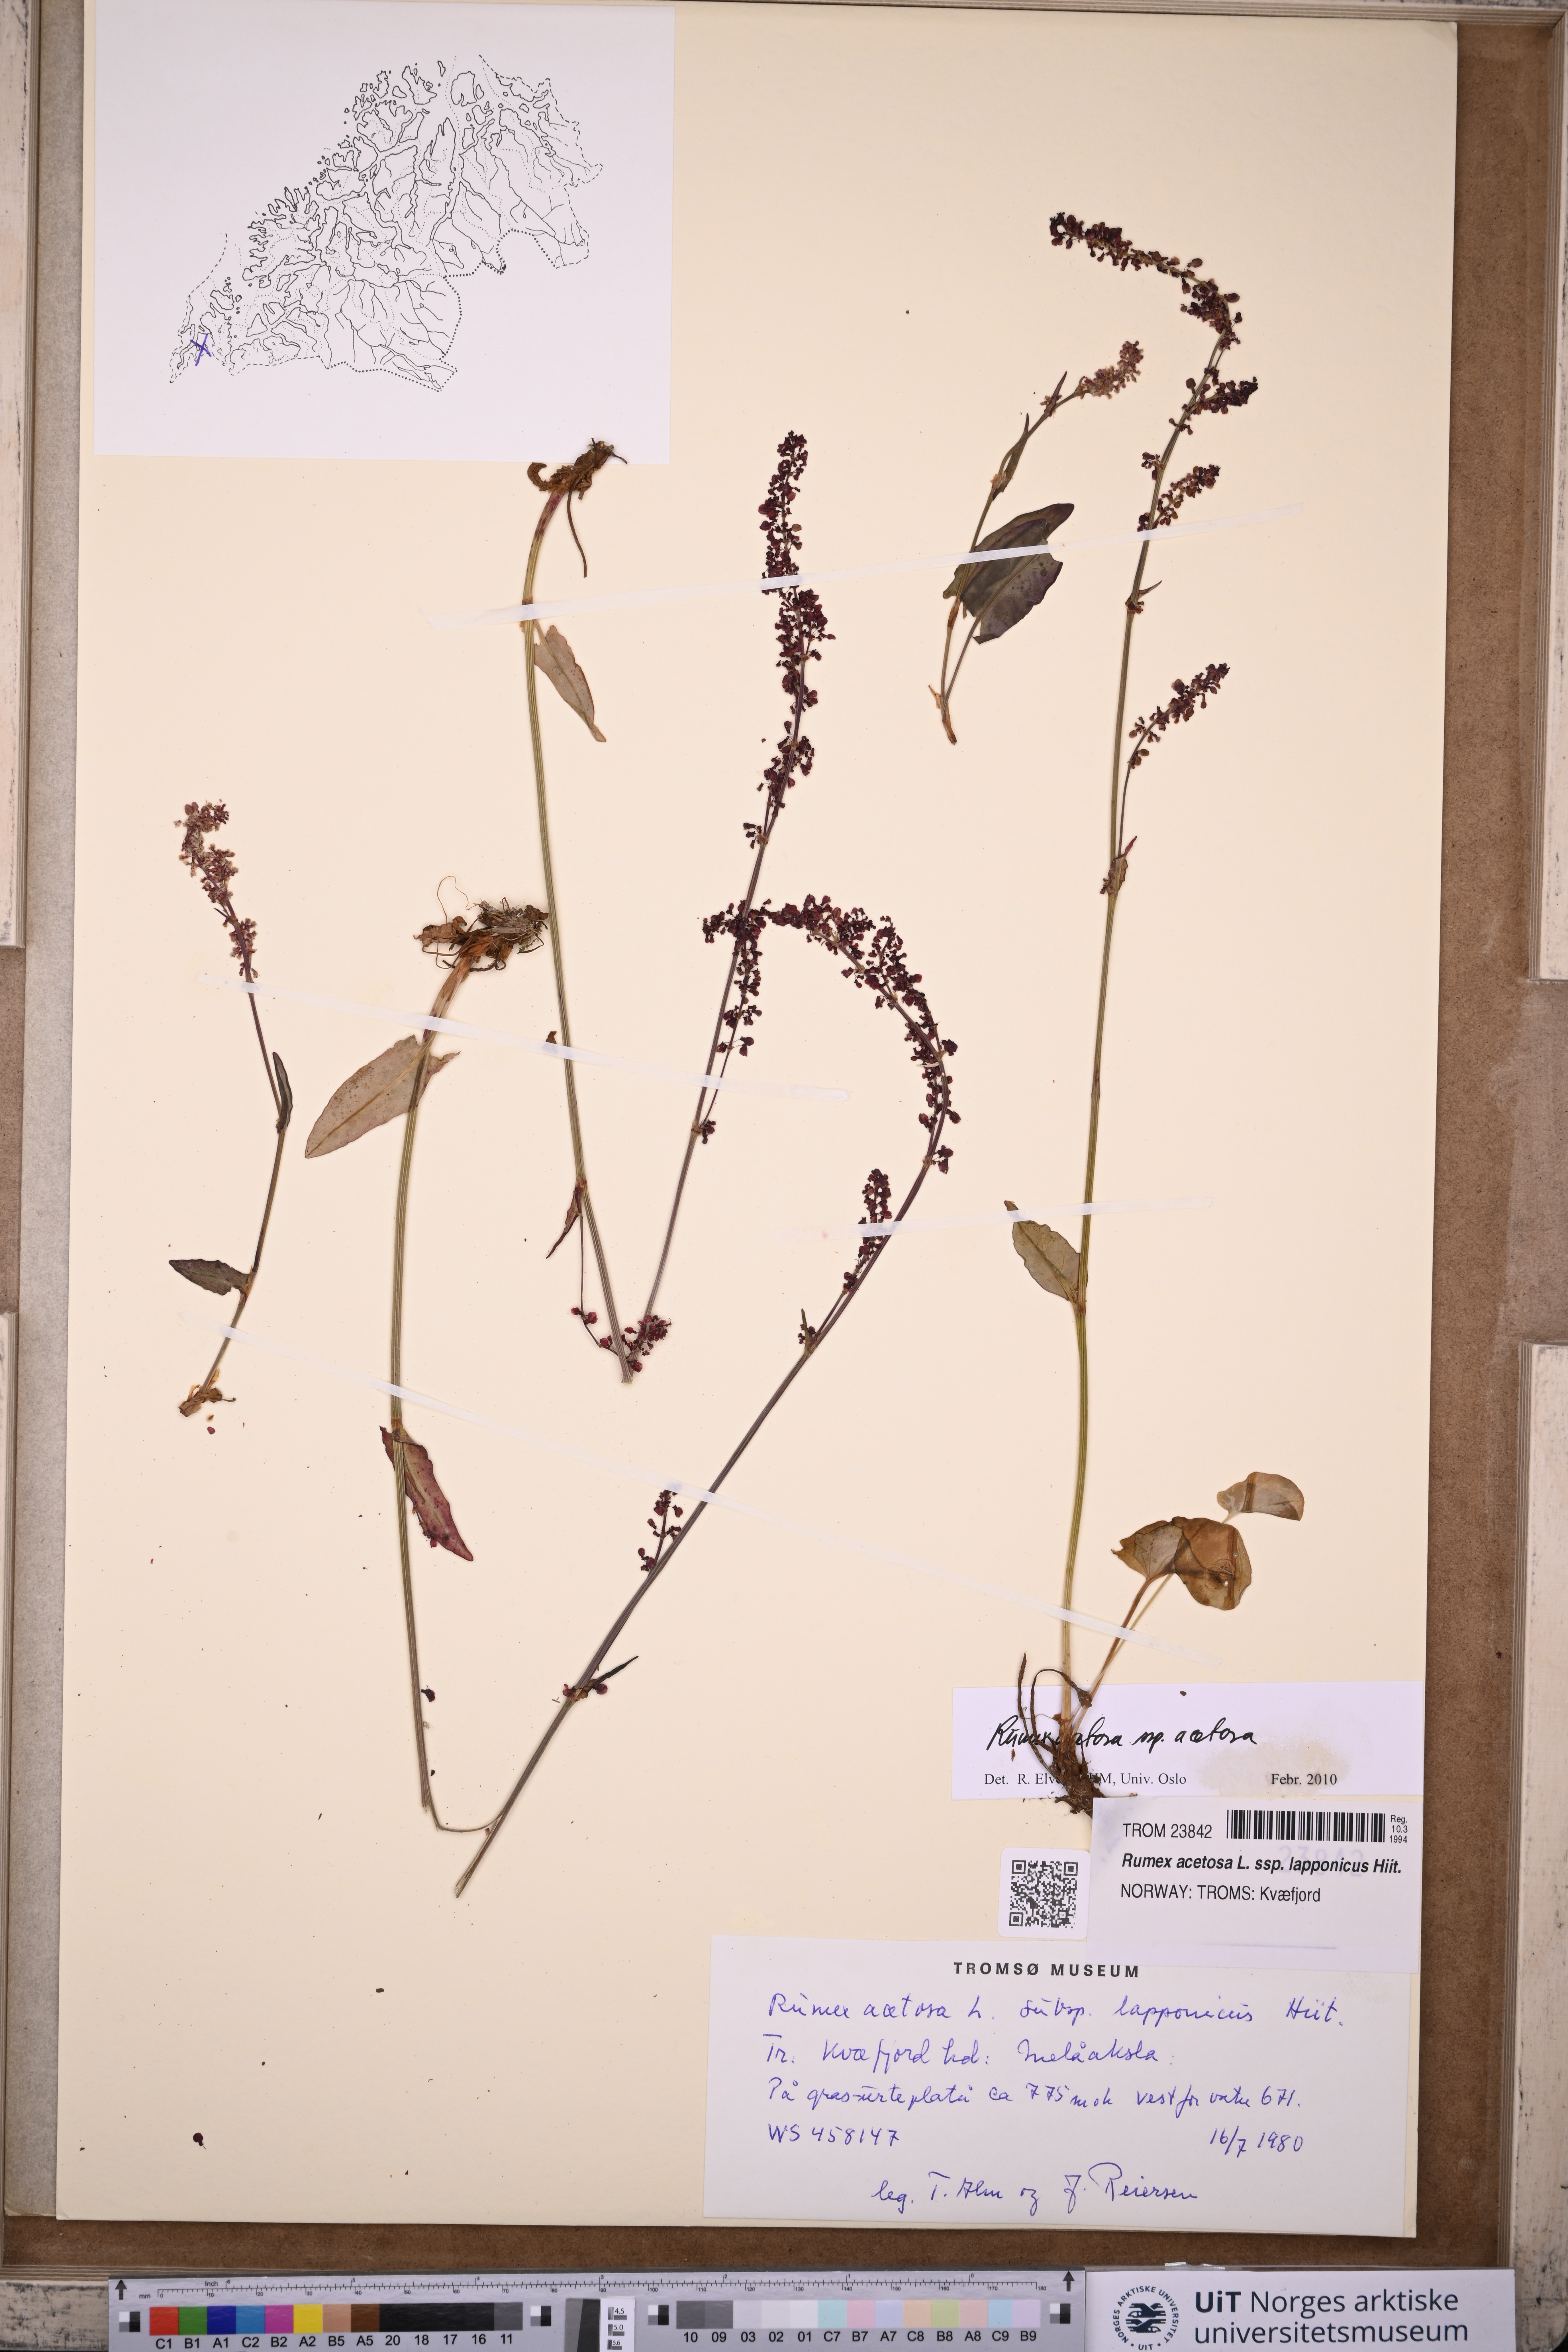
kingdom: Plantae
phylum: Tracheophyta
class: Magnoliopsida
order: Caryophyllales
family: Polygonaceae
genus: Rumex
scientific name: Rumex acetosa
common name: Garden sorrel
